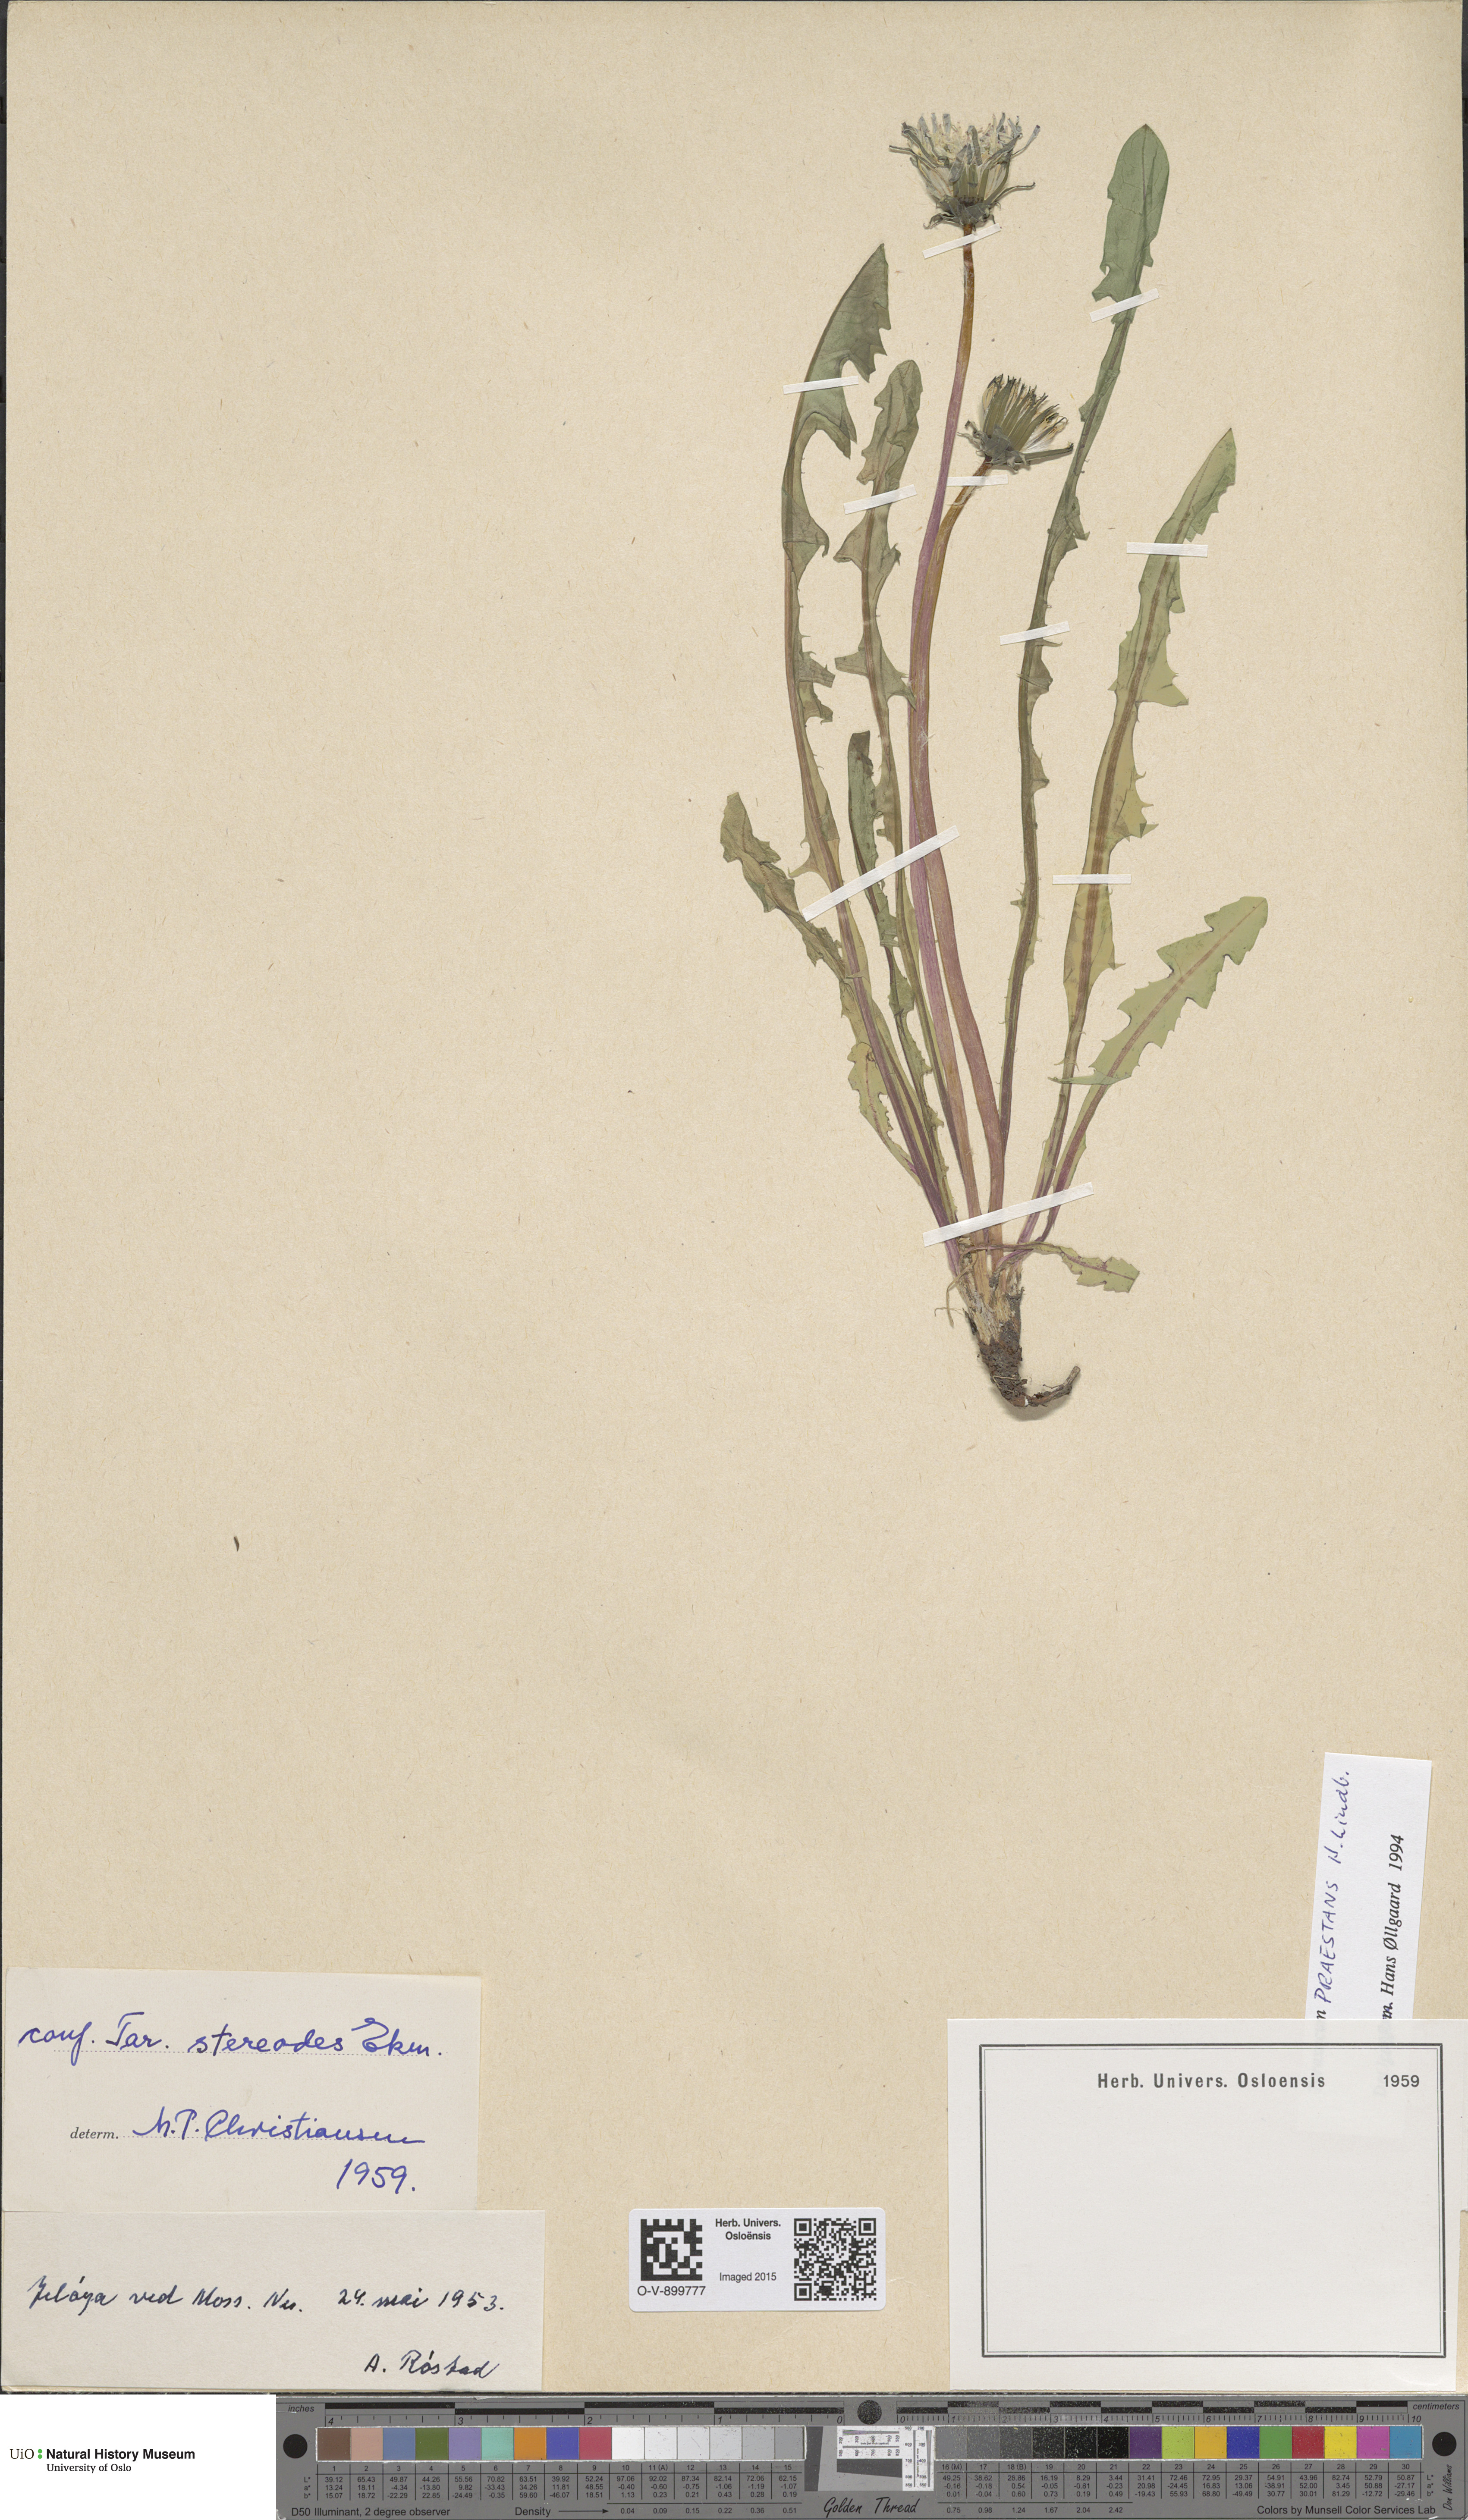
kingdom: Plantae
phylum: Tracheophyta
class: Magnoliopsida
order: Asterales
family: Asteraceae
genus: Taraxacum
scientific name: Taraxacum praestans
